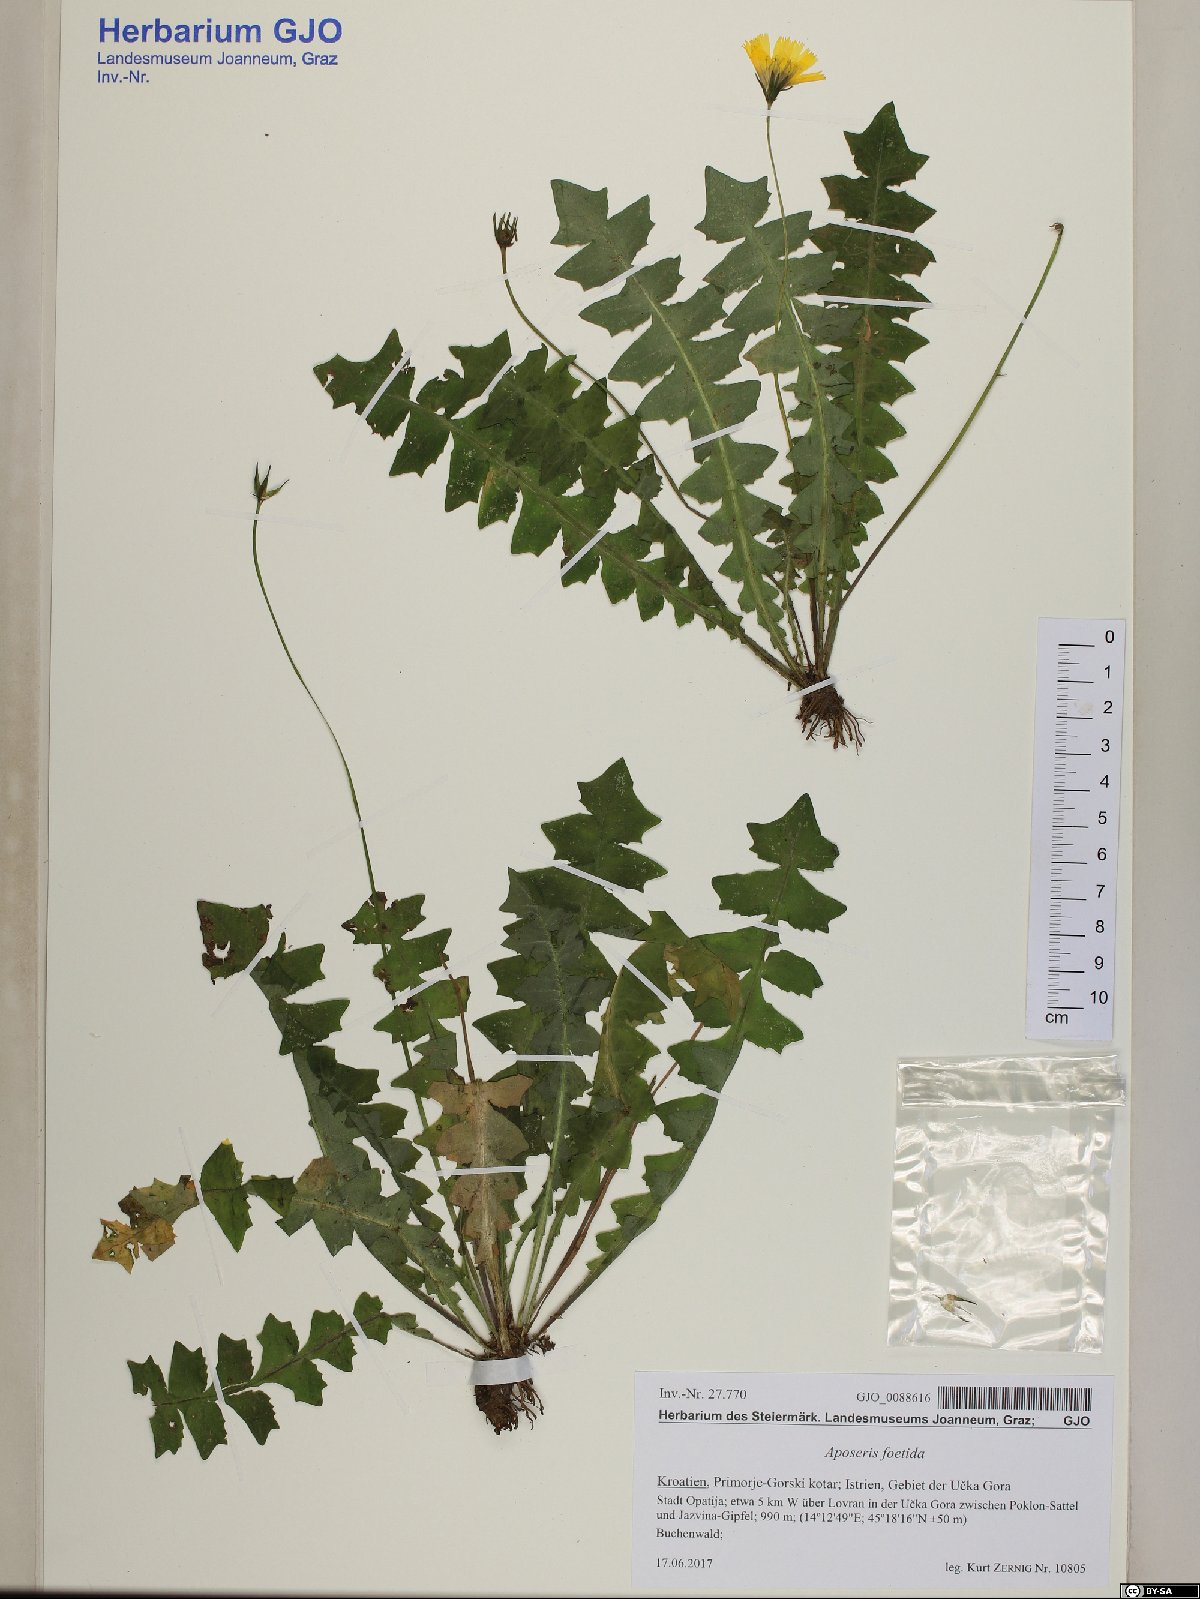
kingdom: Plantae
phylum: Tracheophyta
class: Magnoliopsida
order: Asterales
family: Asteraceae
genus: Aposeris
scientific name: Aposeris foetida
